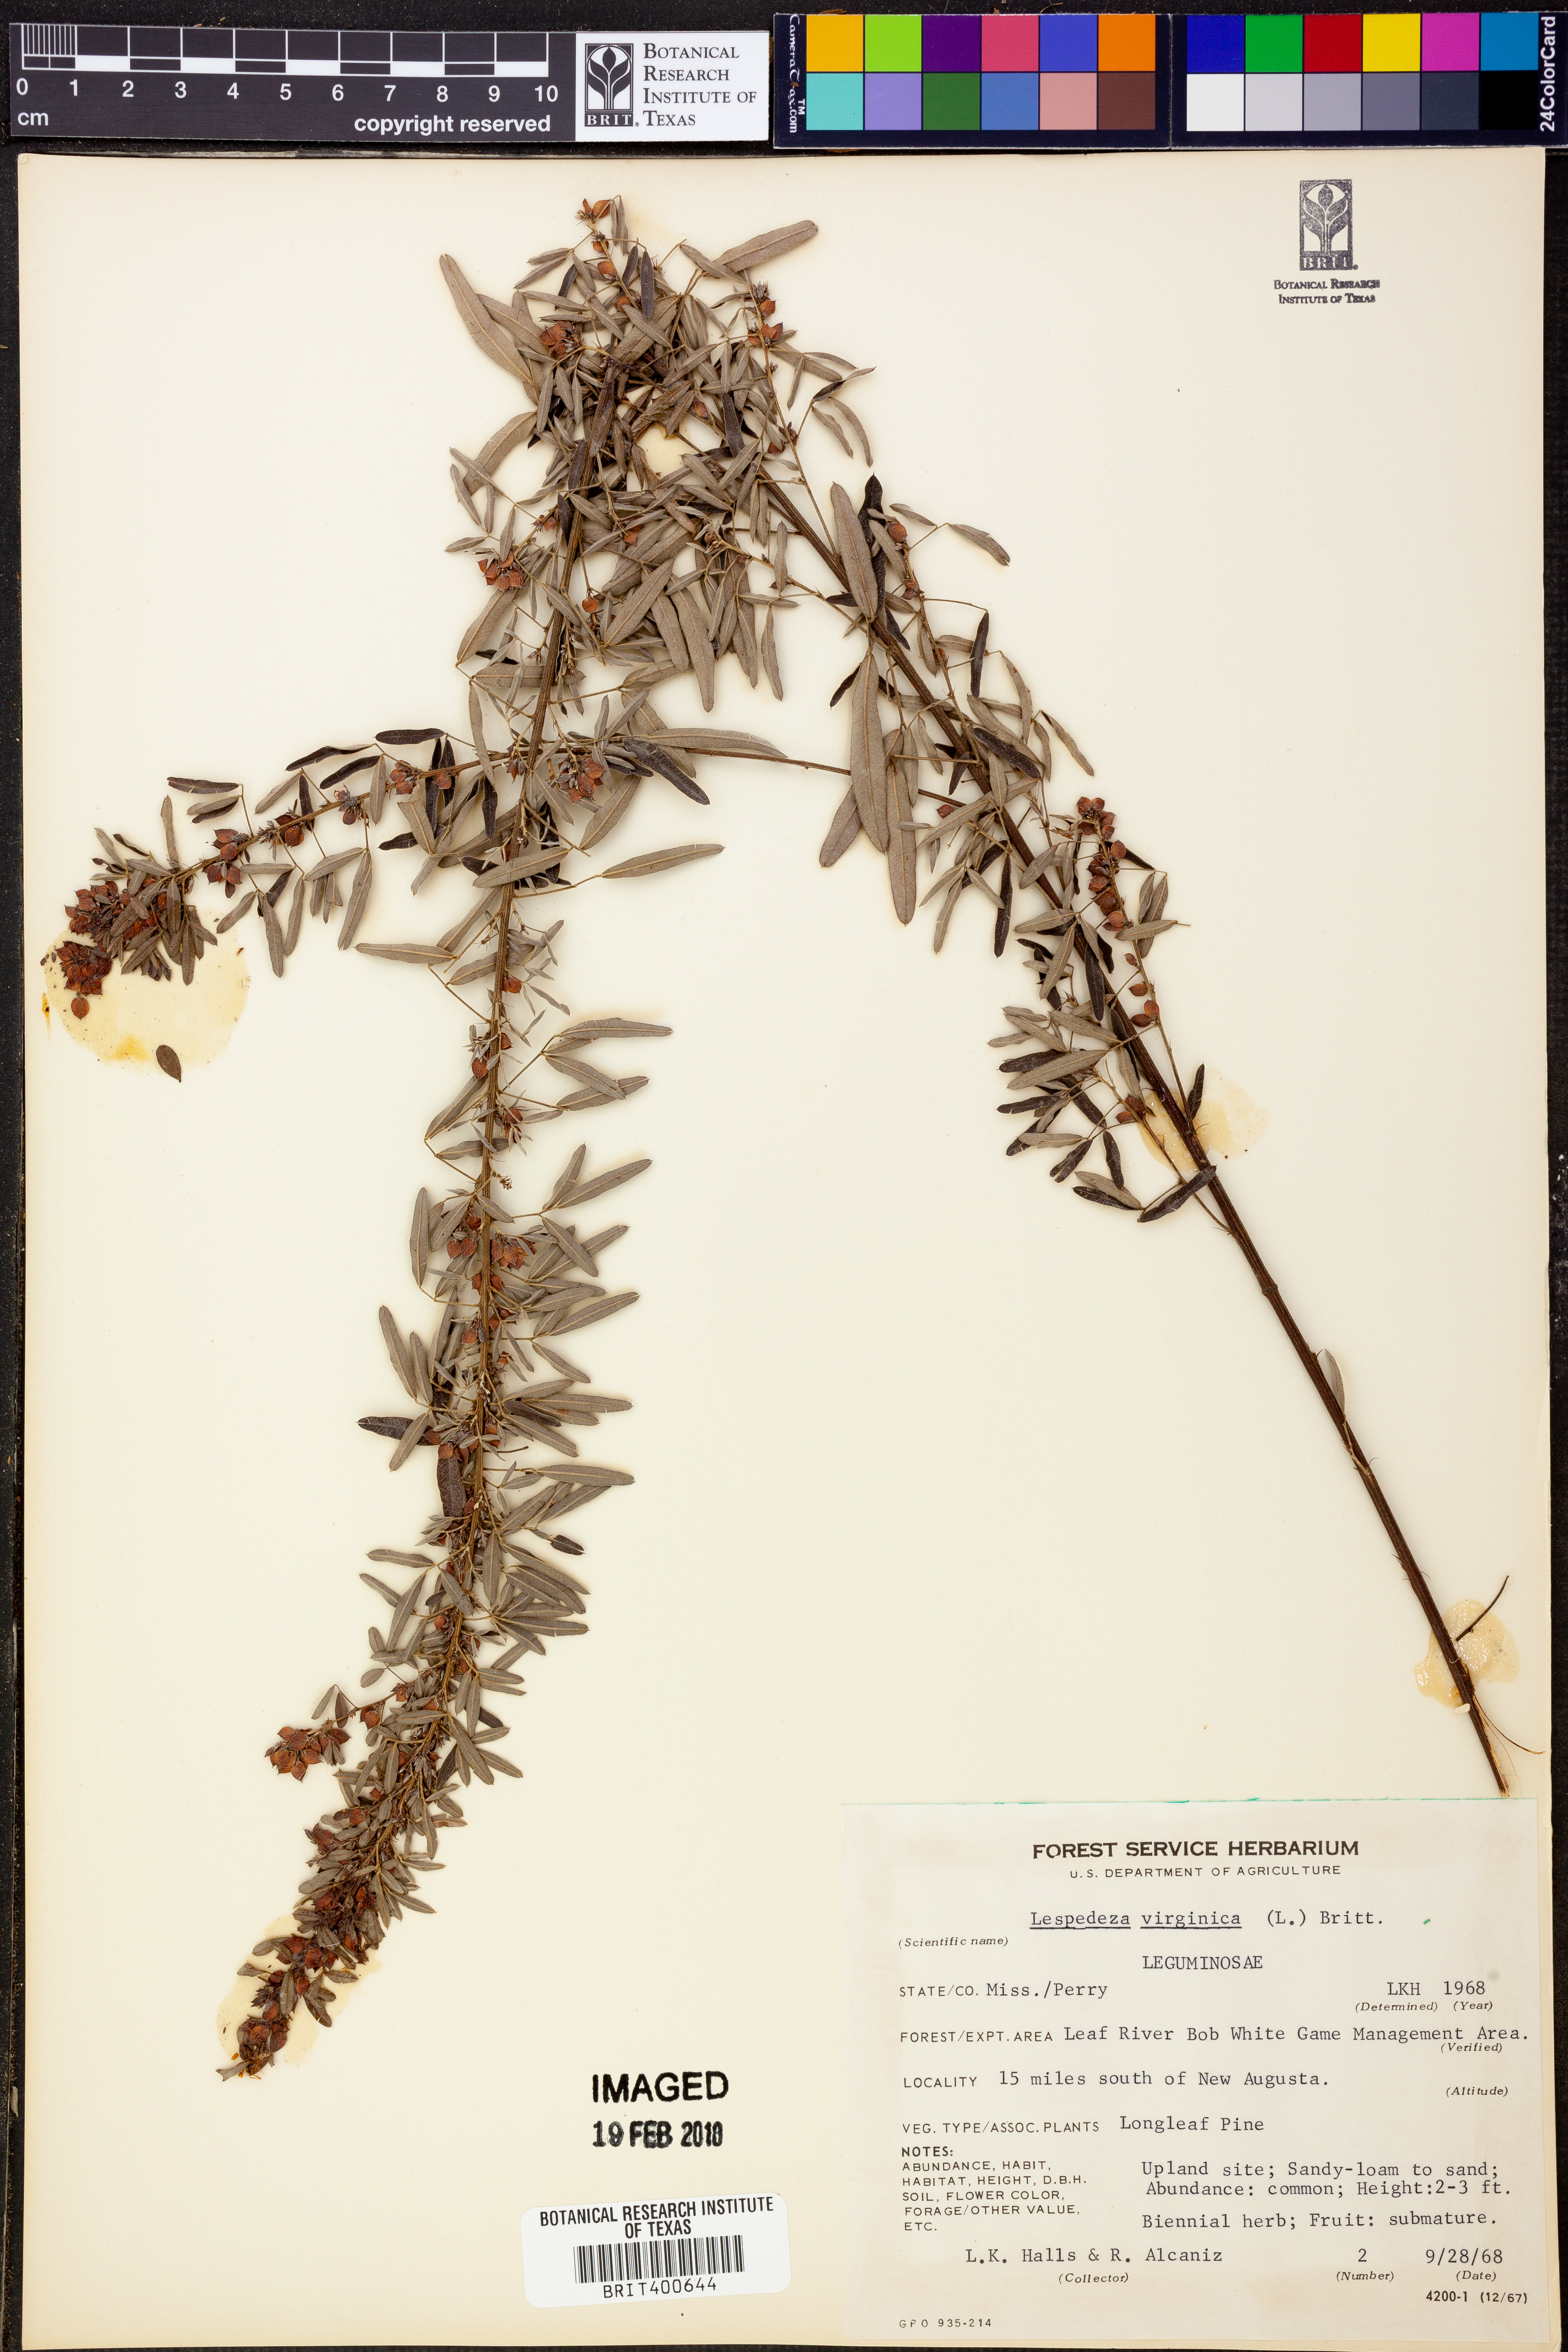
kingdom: Plantae
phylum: Tracheophyta
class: Magnoliopsida
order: Fabales
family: Fabaceae
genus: Lespedeza
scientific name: Lespedeza virginica
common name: Slender bush-clover
